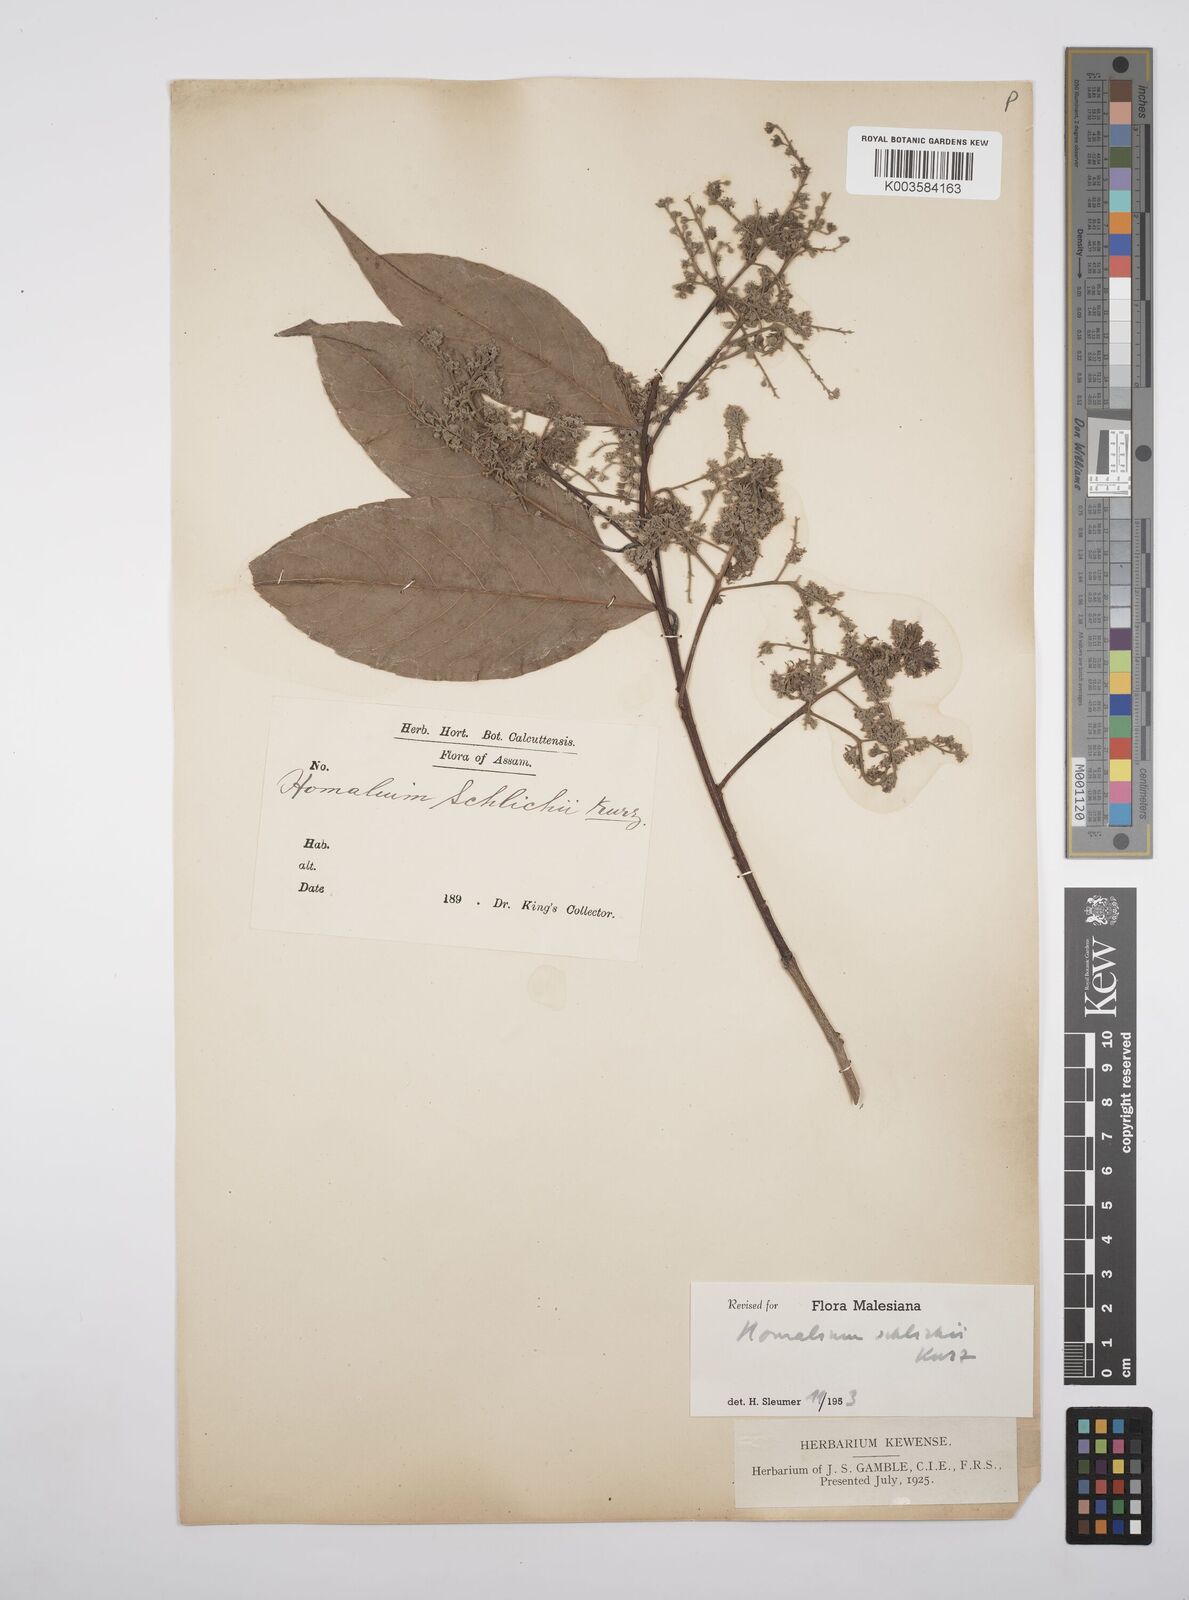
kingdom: Plantae
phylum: Tracheophyta
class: Magnoliopsida
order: Malpighiales
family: Salicaceae
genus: Homalium
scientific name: Homalium schlichii
